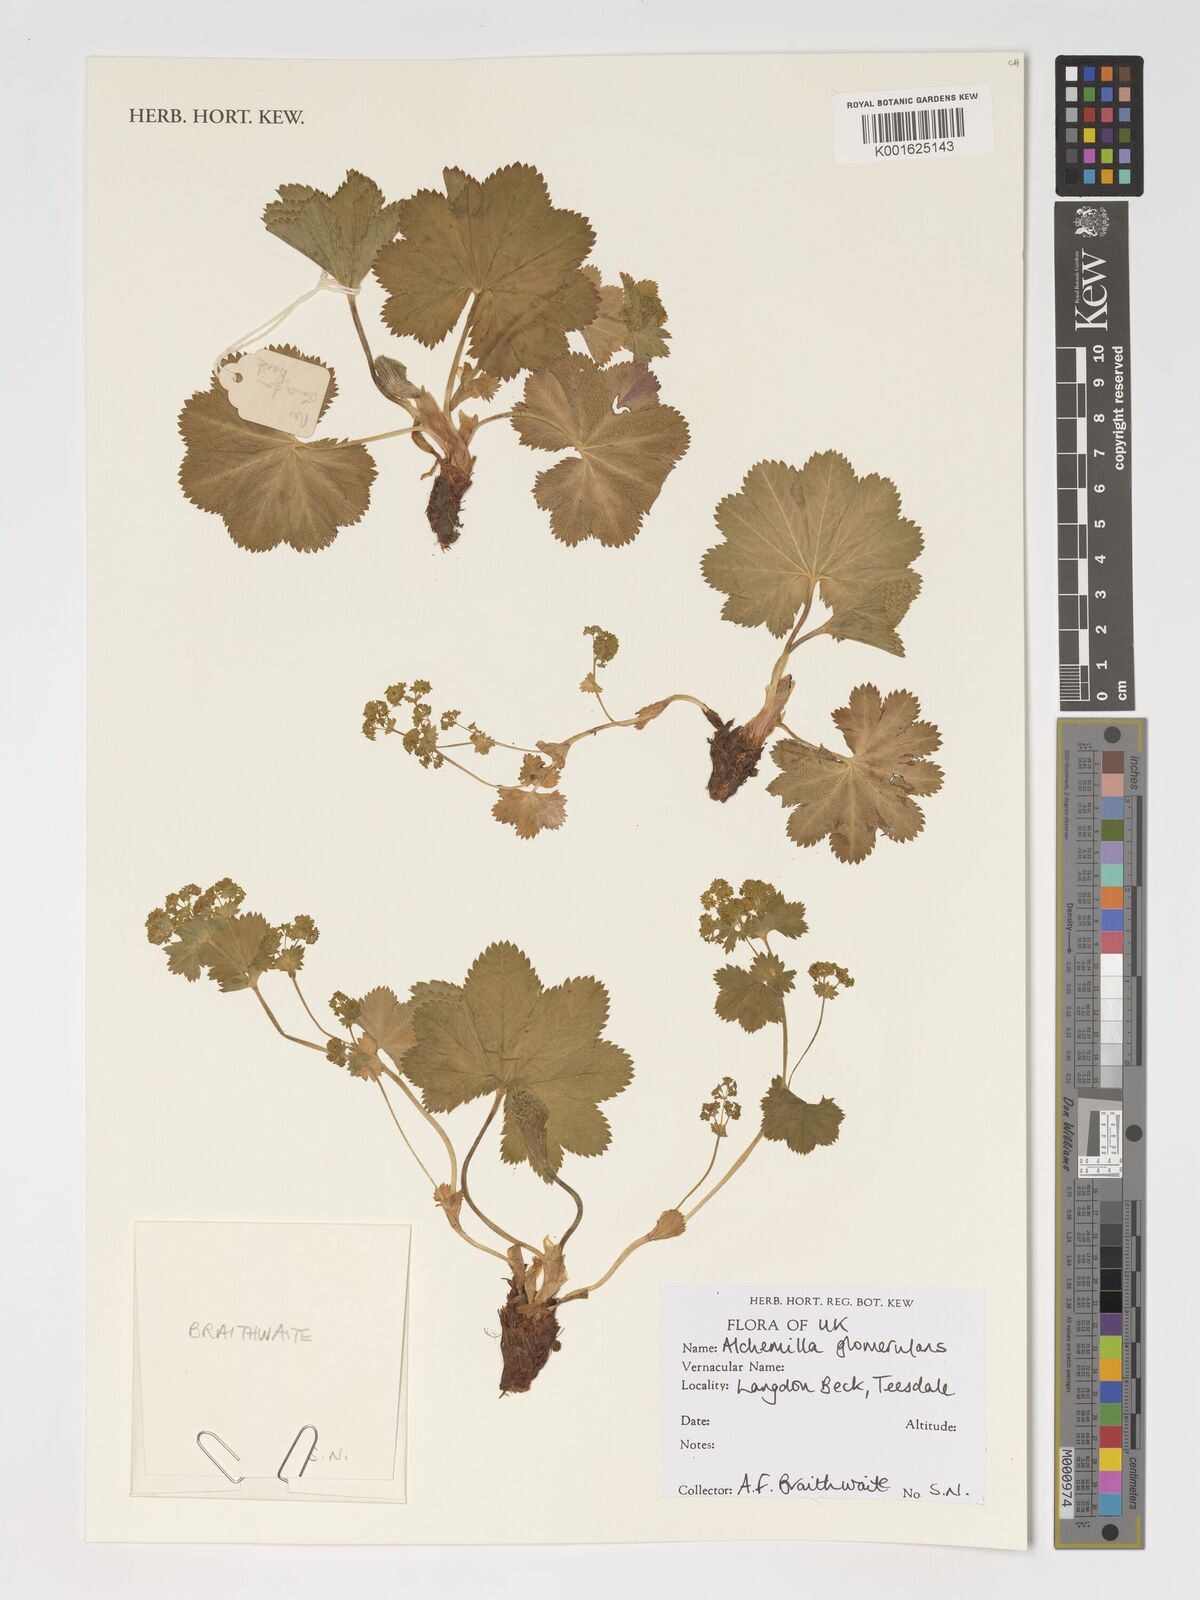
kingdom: Plantae
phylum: Tracheophyta
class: Magnoliopsida
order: Rosales
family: Rosaceae
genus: Alchemilla
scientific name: Alchemilla glomerulans
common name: Clustered lady's mantle
